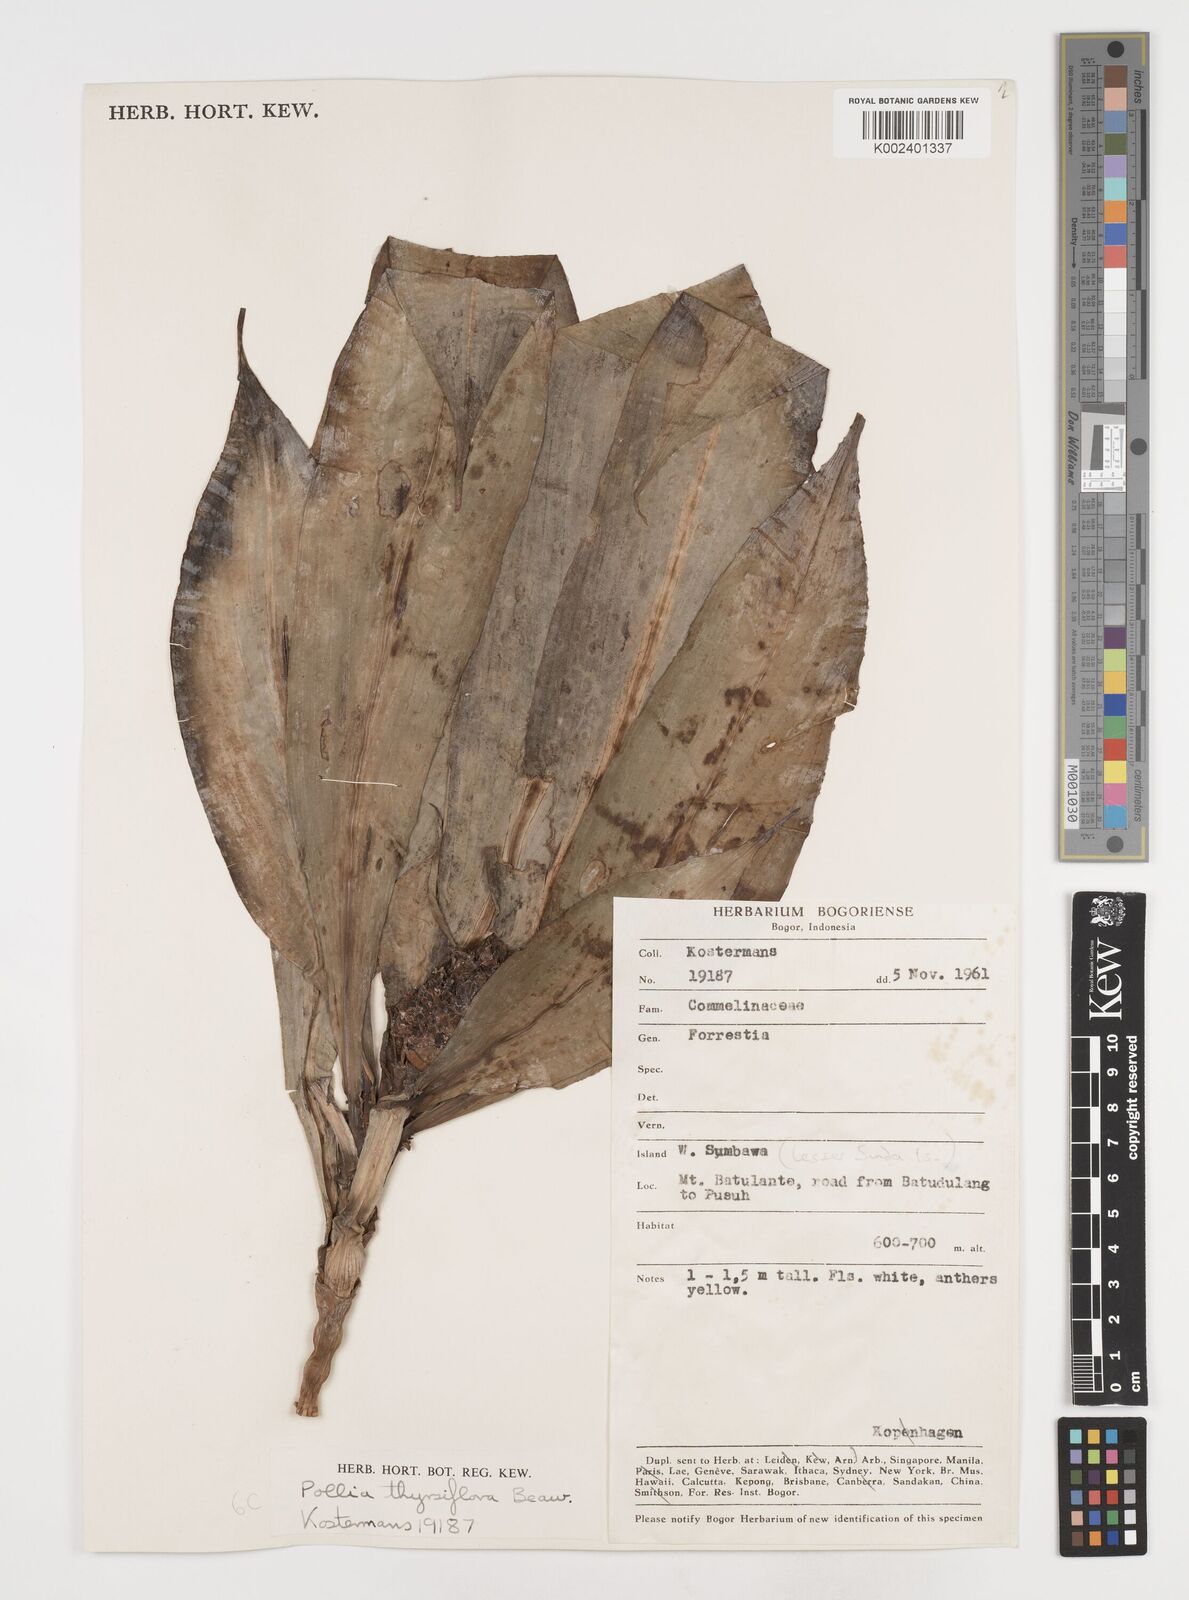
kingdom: Plantae
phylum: Tracheophyta
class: Liliopsida
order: Commelinales
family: Commelinaceae
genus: Pollia
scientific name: Pollia thyrsiflora
